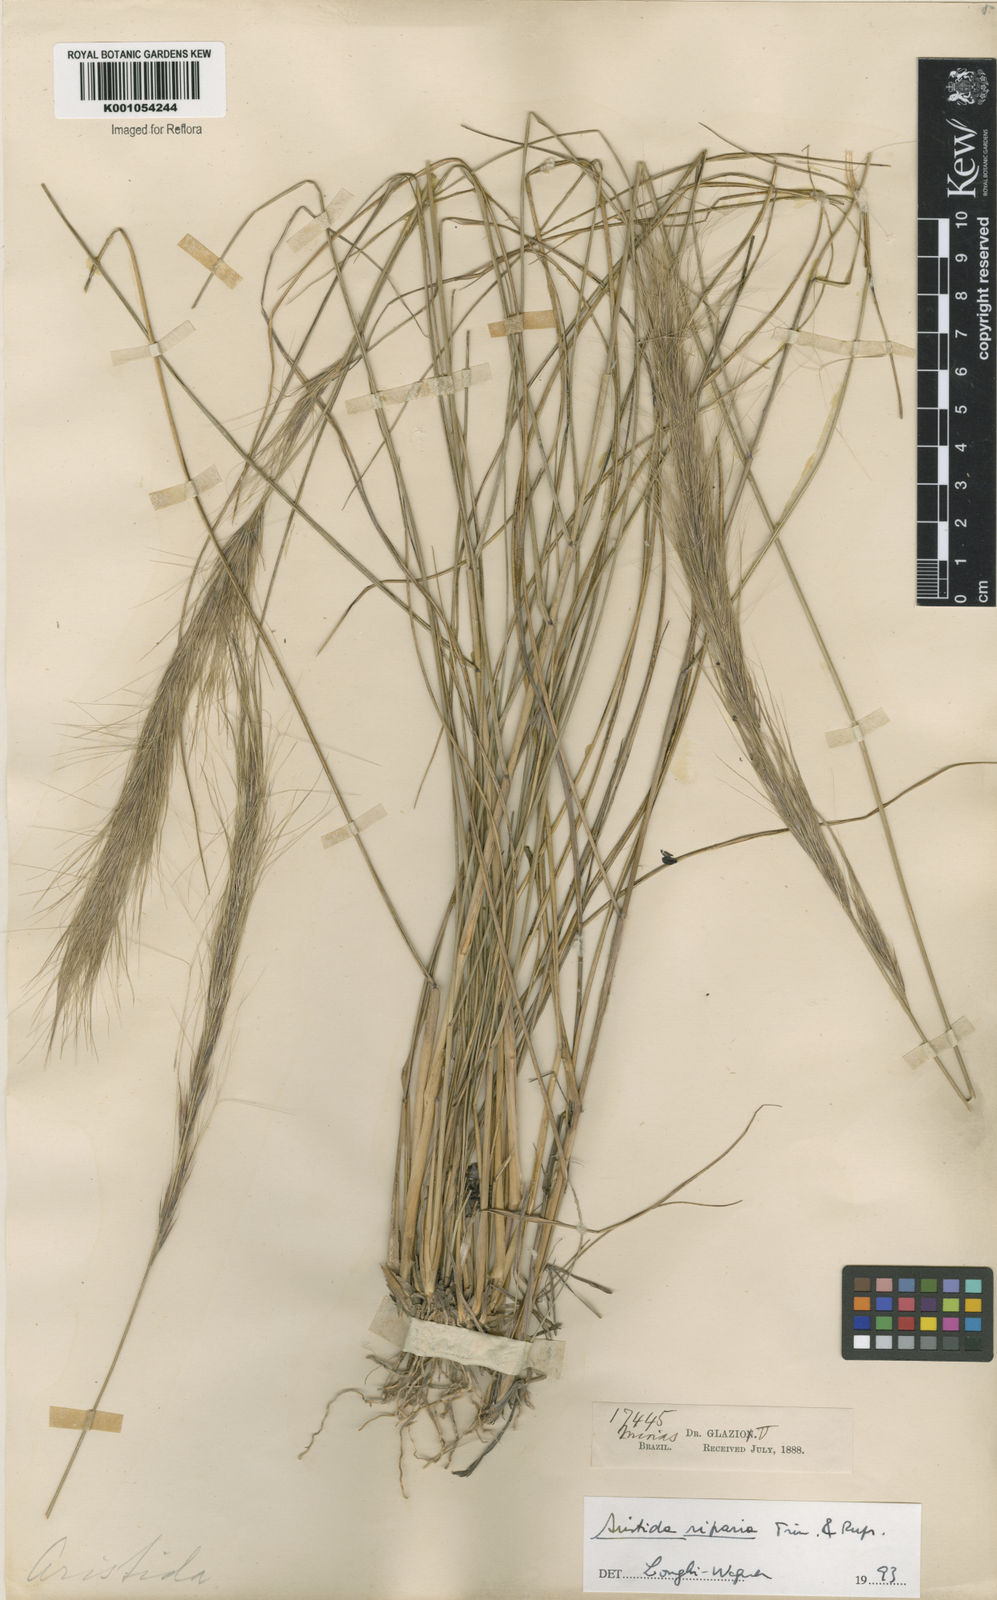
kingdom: Plantae
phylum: Tracheophyta
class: Liliopsida
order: Poales
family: Poaceae
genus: Aristida
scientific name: Aristida riparia
